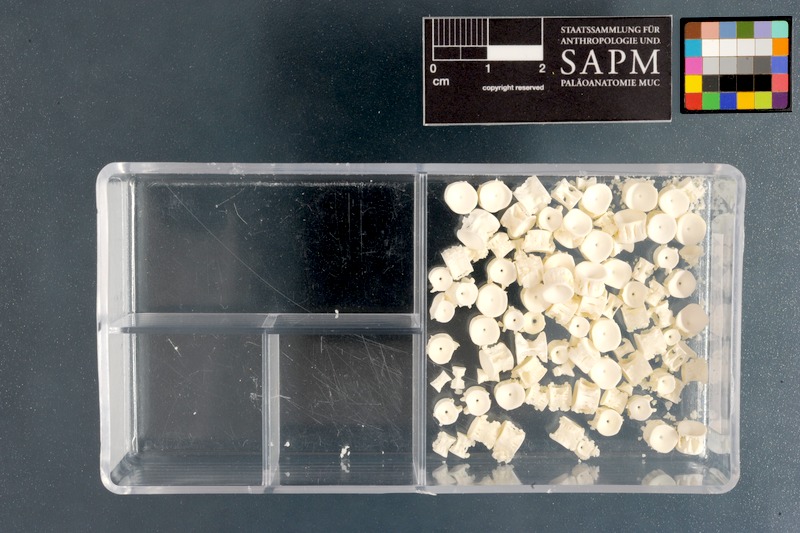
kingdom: Animalia
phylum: Chordata
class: Elasmobranchii
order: Rajiformes
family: Rajidae
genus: Rostroraja
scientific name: Rostroraja alba
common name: White skate
